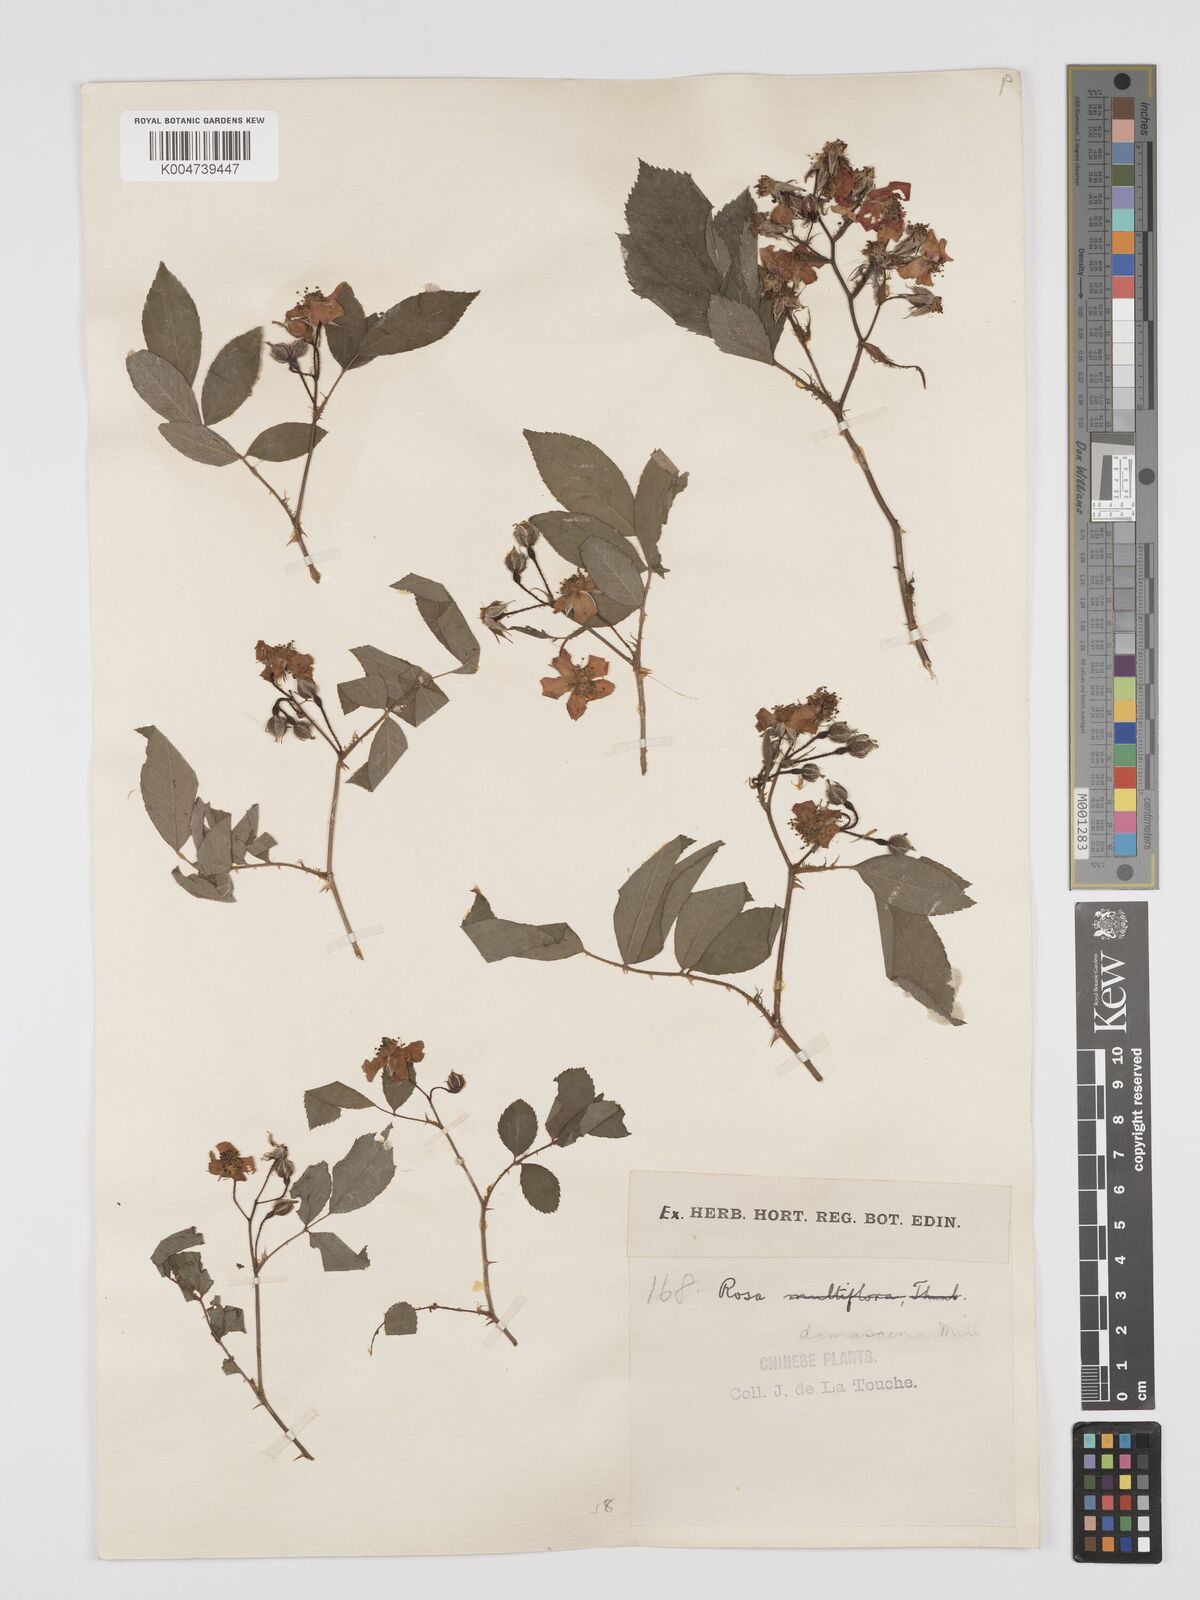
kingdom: Plantae
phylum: Tracheophyta
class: Magnoliopsida
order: Rosales
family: Rosaceae
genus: Rosa
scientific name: Rosa
